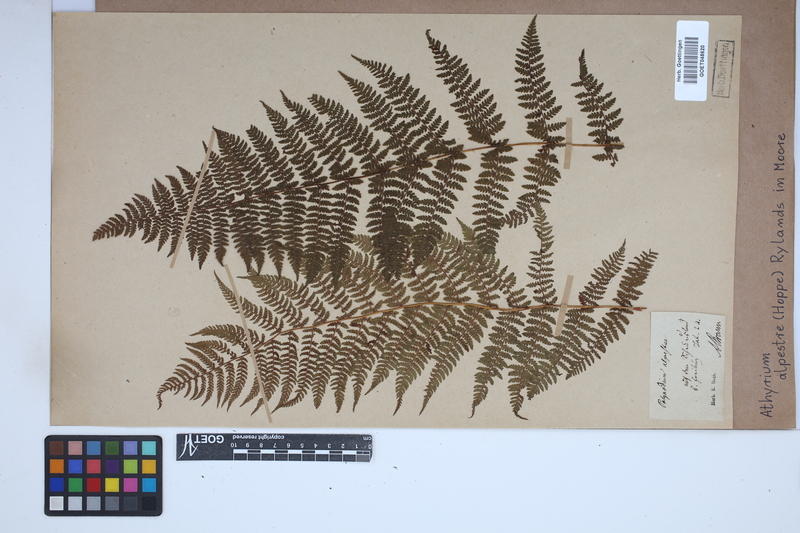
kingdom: Plantae
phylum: Tracheophyta
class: Polypodiopsida
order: Polypodiales
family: Athyriaceae
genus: Pseudathyrium
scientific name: Pseudathyrium alpestre
